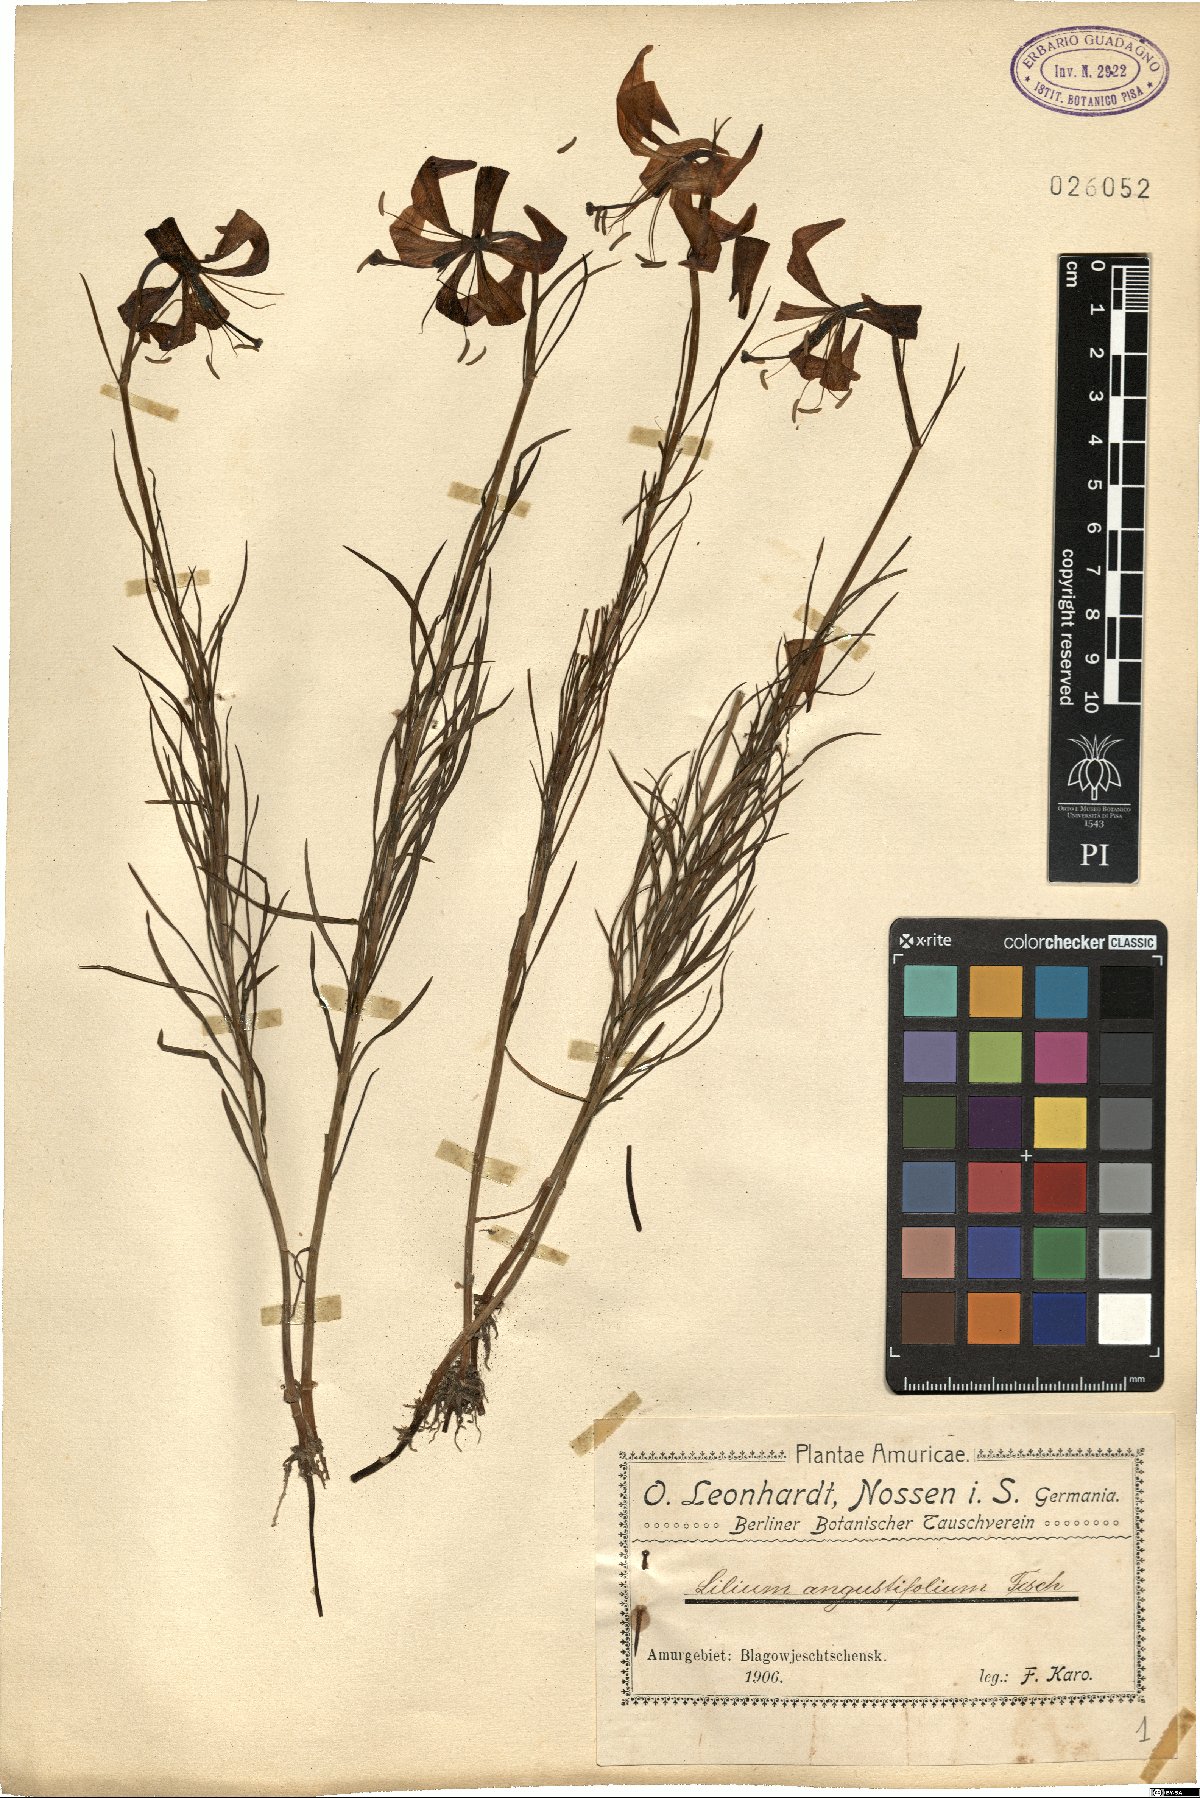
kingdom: Plantae
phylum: Tracheophyta
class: Liliopsida
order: Liliales
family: Liliaceae
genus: Lilium
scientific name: Lilium pomponium
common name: Minor turk's-cap lily
